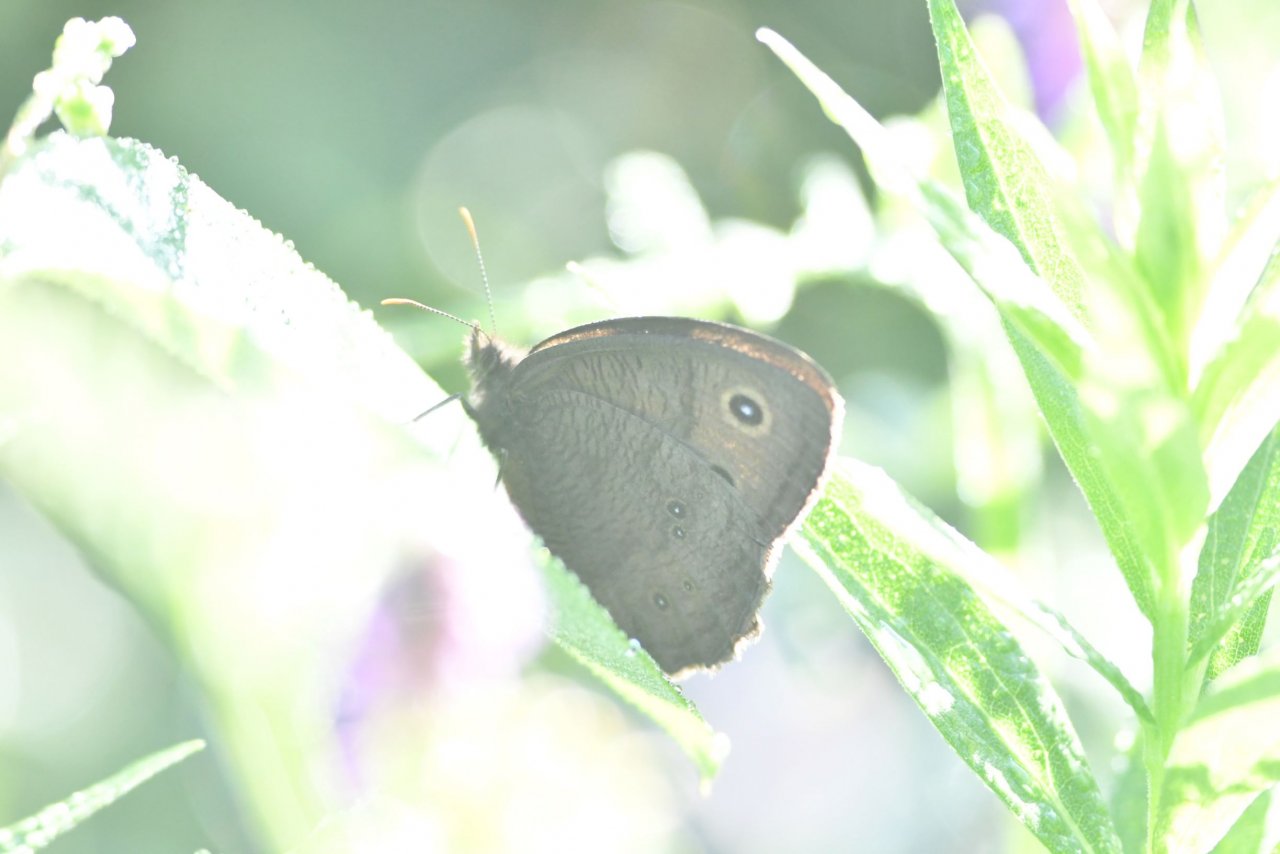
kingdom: Animalia
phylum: Arthropoda
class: Insecta
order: Lepidoptera
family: Nymphalidae
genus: Cercyonis
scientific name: Cercyonis pegala
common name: Common Wood-Nymph
